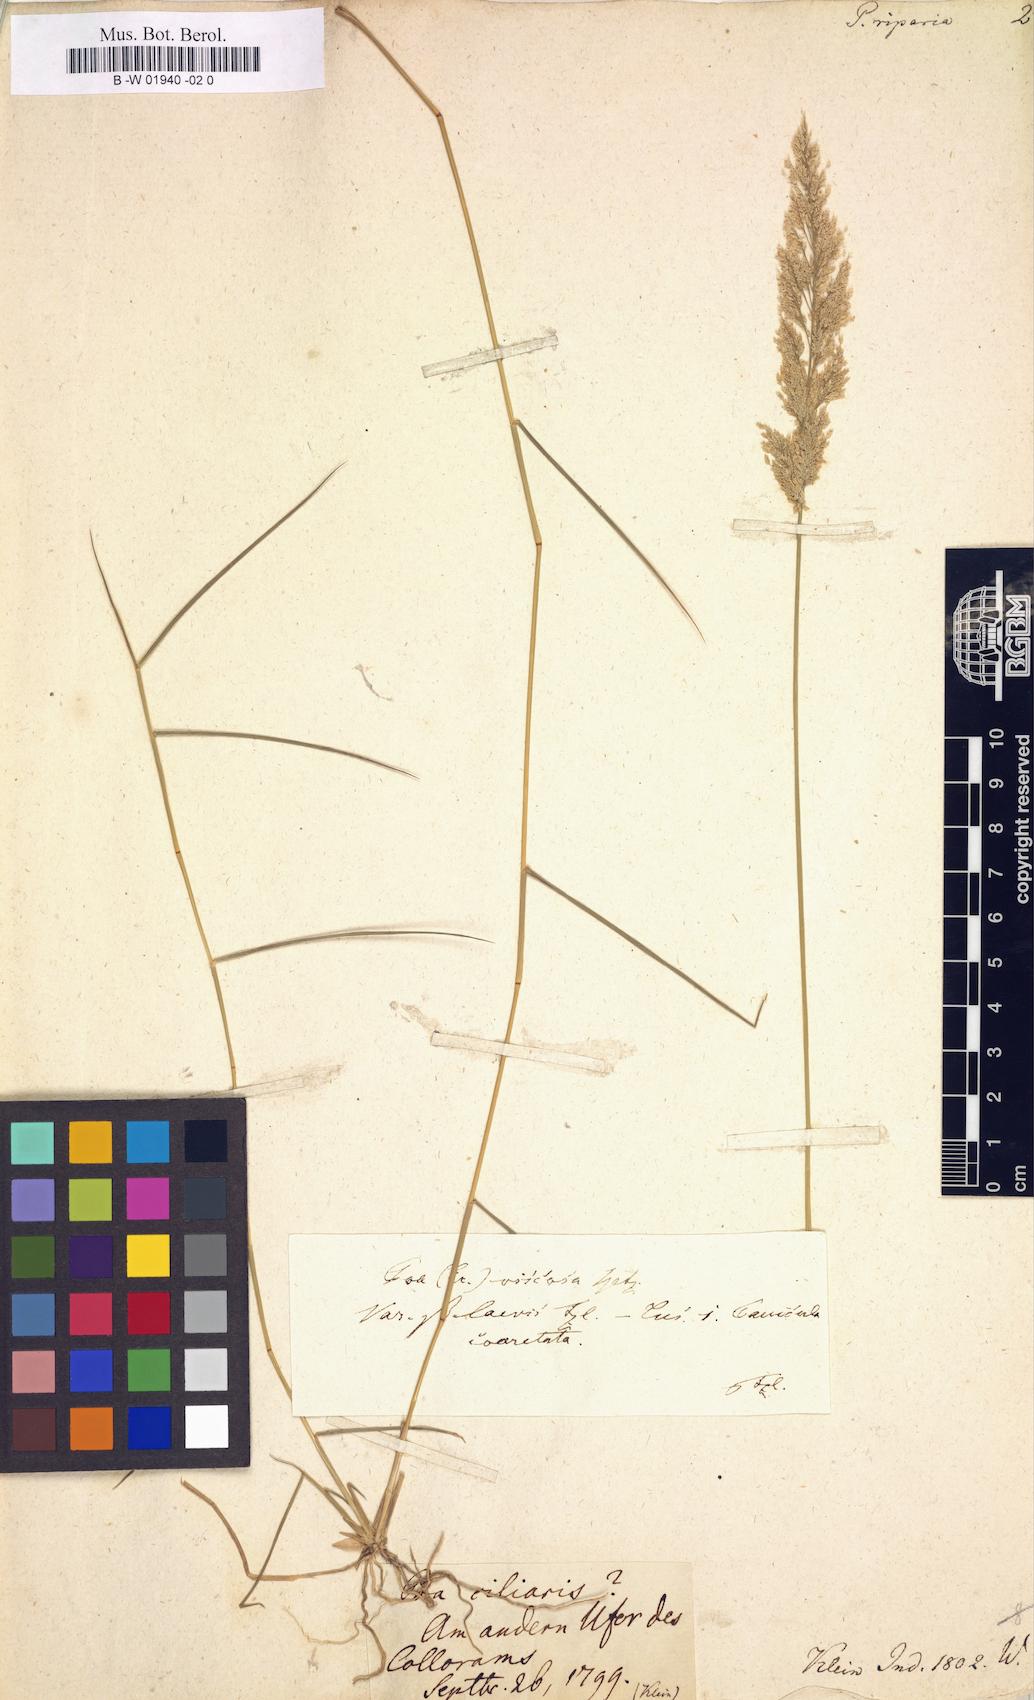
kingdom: Plantae
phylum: Tracheophyta
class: Liliopsida
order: Poales
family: Poaceae
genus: Eragrostis
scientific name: Eragrostis riparia
